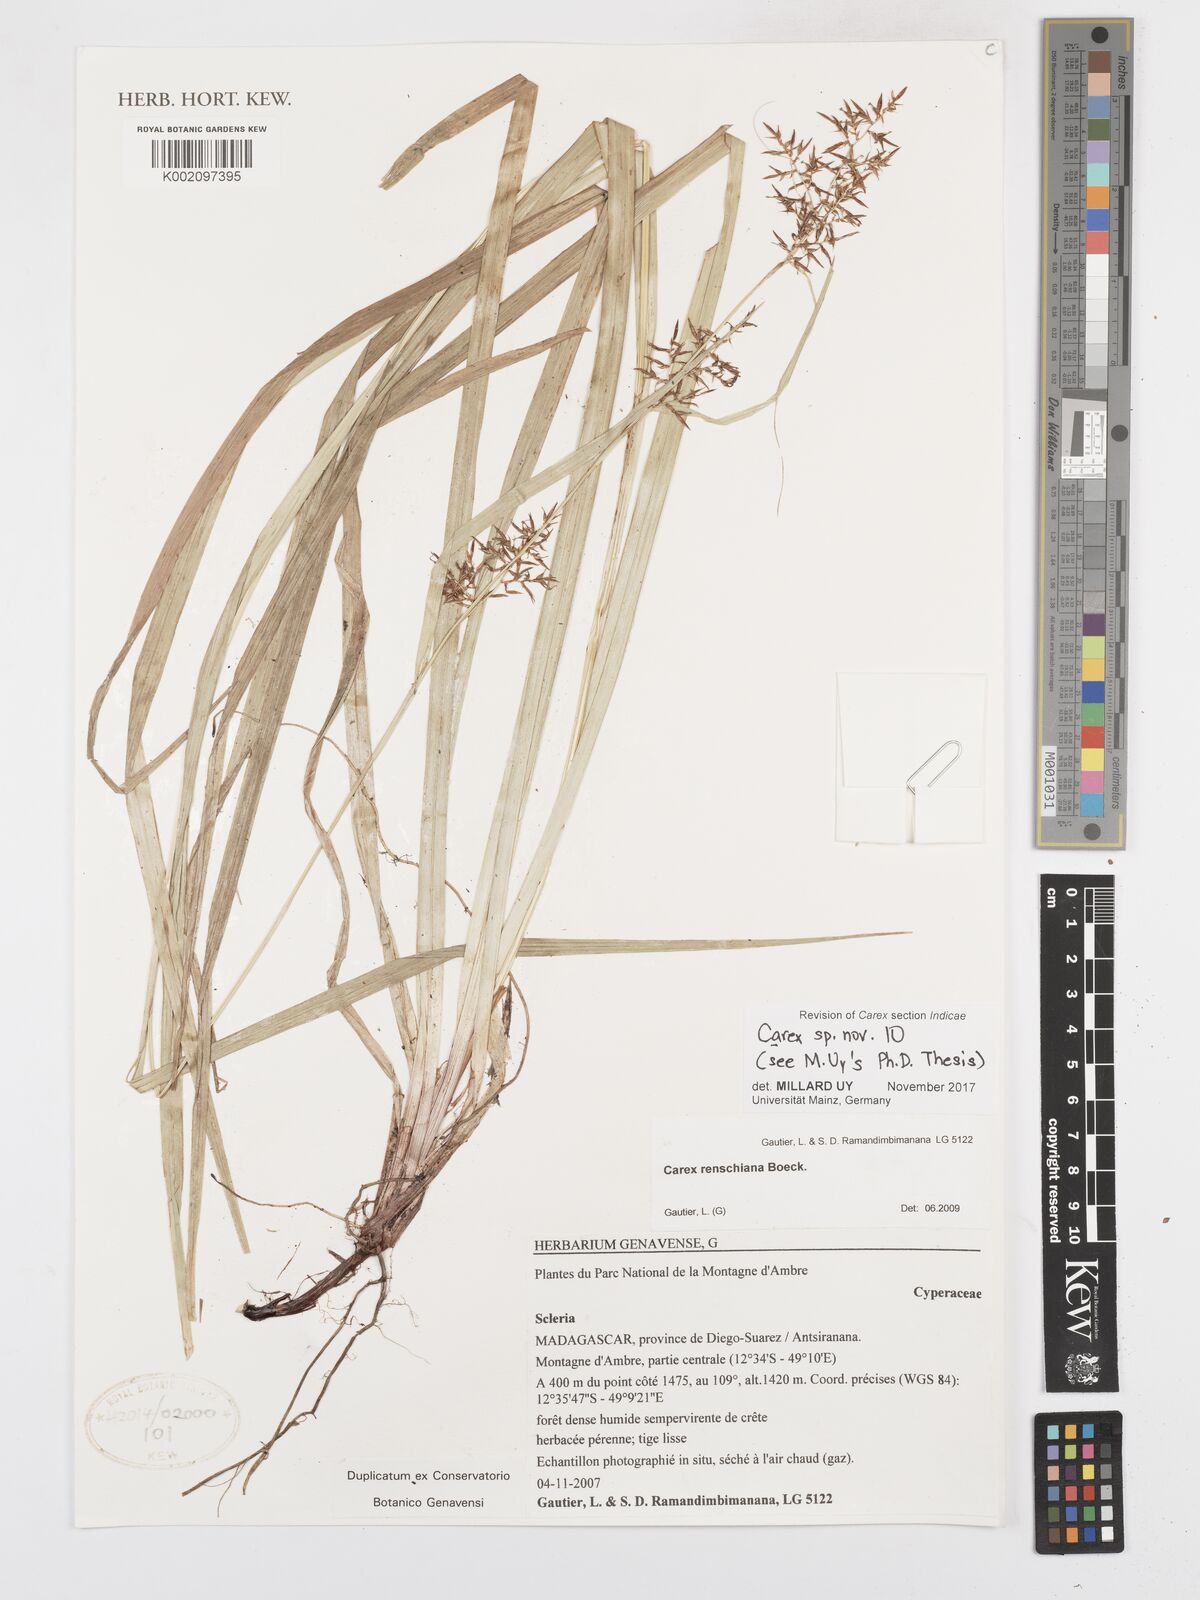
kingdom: Plantae
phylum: Tracheophyta
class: Liliopsida
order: Poales
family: Cyperaceae
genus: Carex
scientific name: Carex
